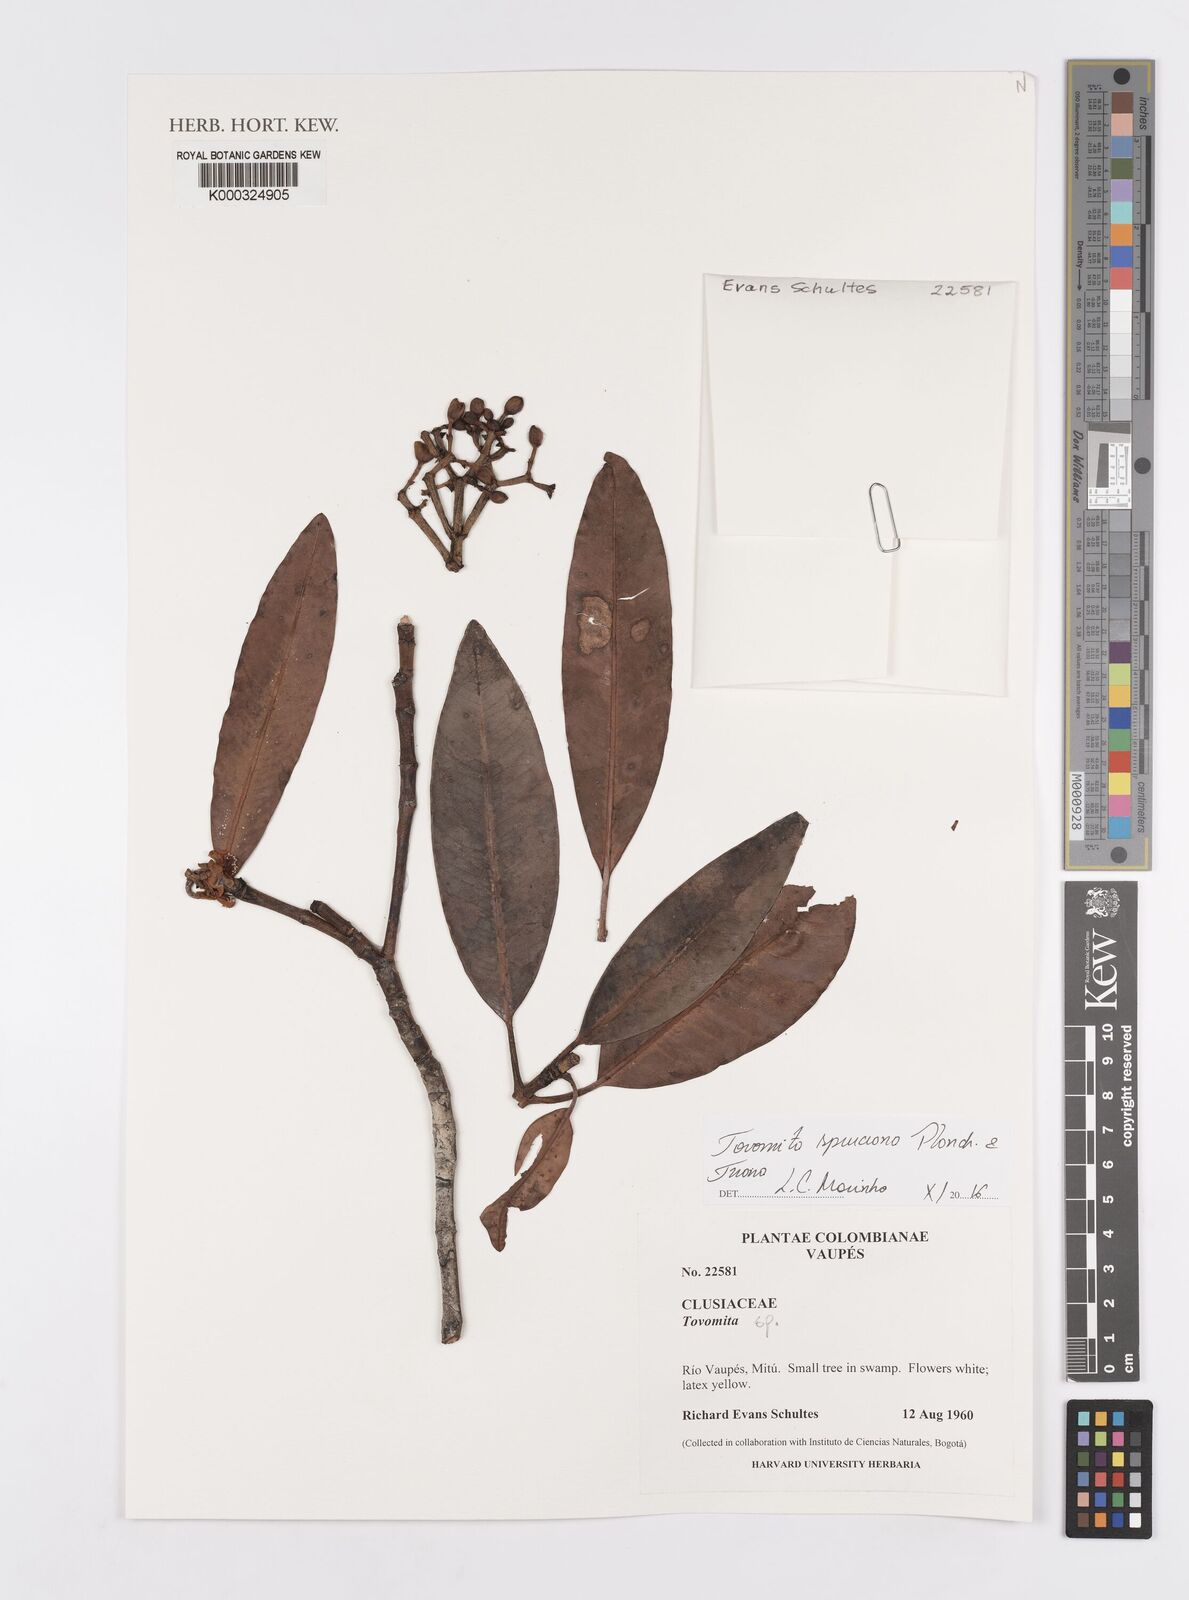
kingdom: Plantae
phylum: Tracheophyta
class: Magnoliopsida
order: Malpighiales
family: Clusiaceae
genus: Tovomita
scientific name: Tovomita spruceana
